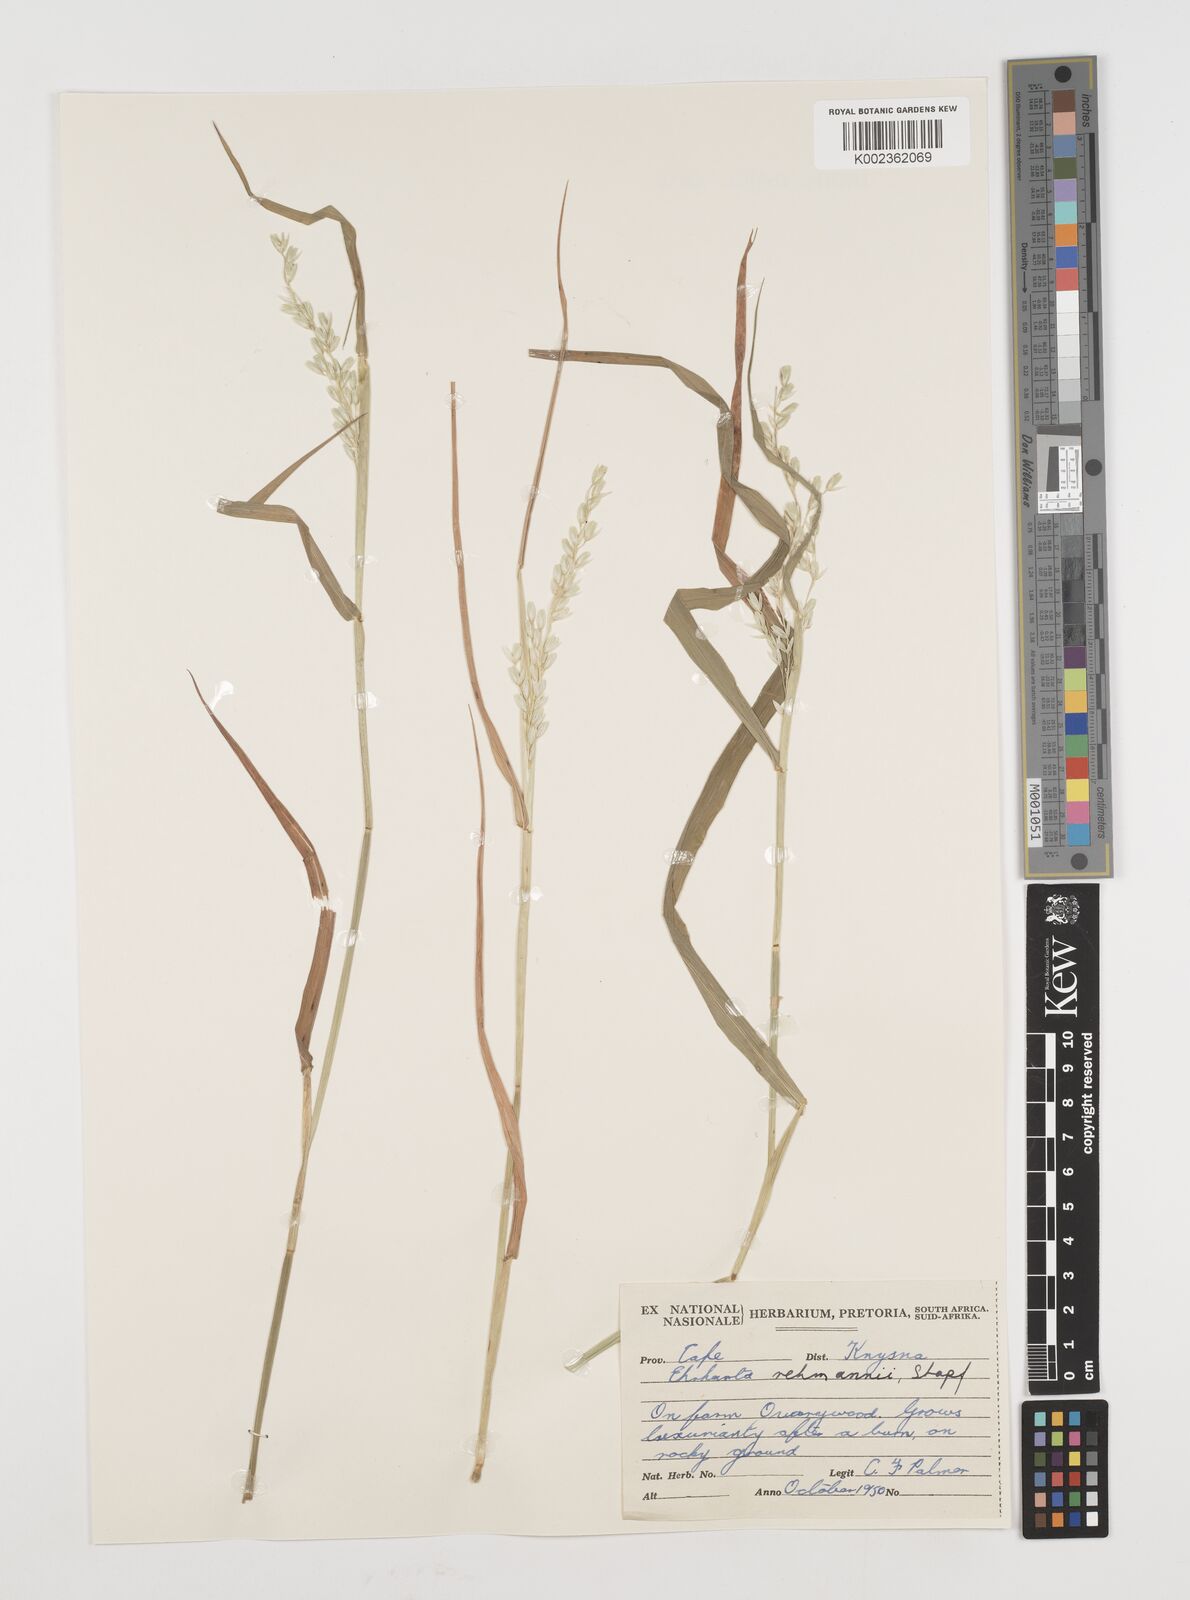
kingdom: Plantae
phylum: Tracheophyta
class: Liliopsida
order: Poales
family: Poaceae
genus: Ehrharta
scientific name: Ehrharta rehmannii
